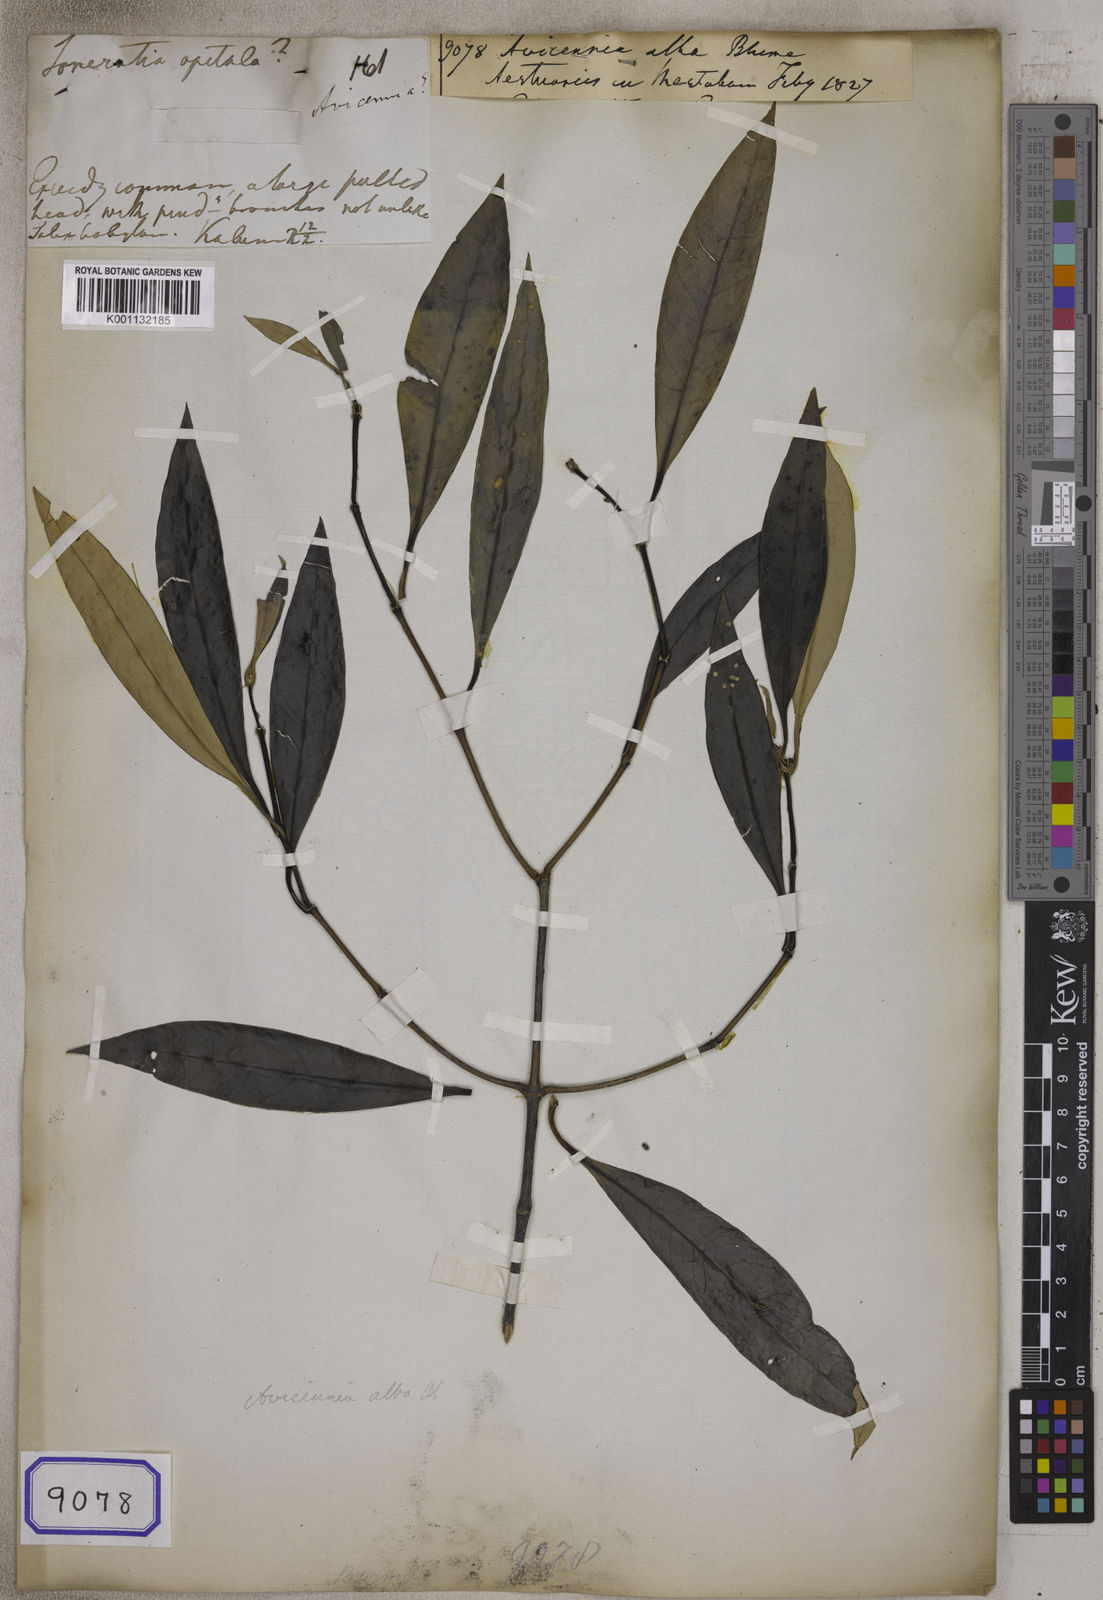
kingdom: Plantae
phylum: Tracheophyta
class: Magnoliopsida
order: Lamiales
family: Acanthaceae
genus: Avicennia
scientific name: Avicennia alba
